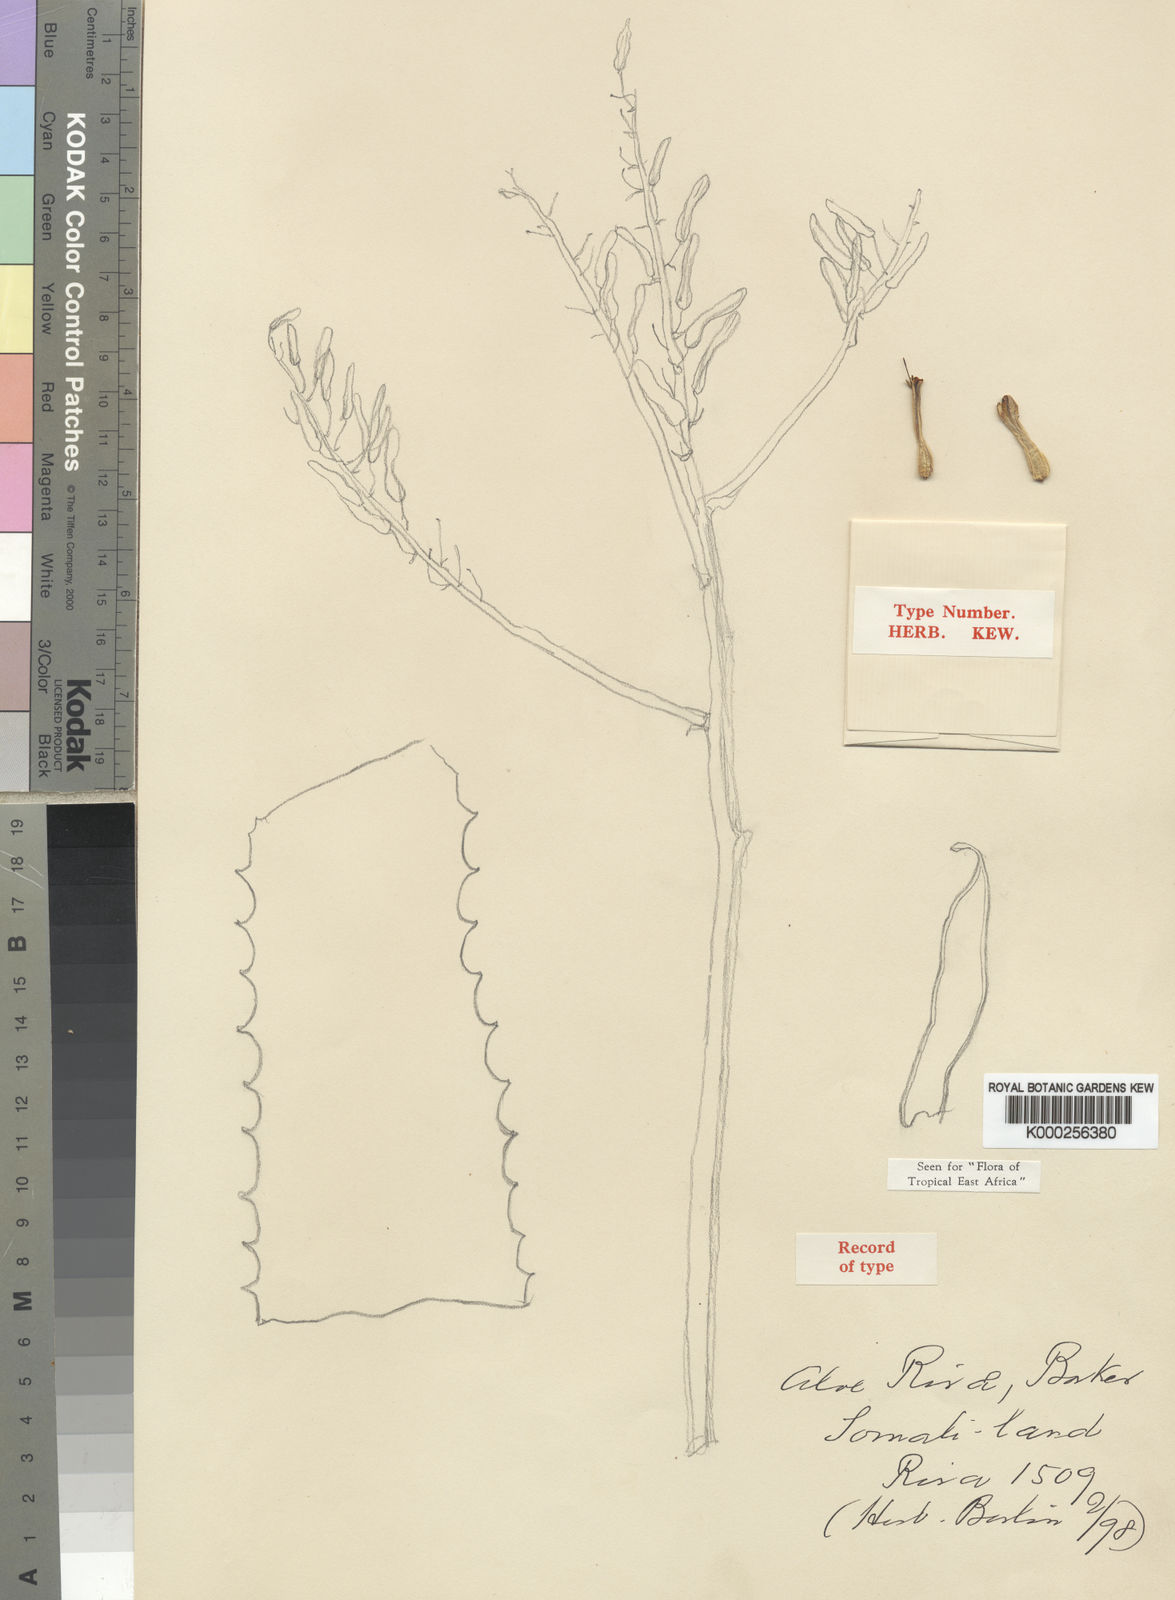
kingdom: Plantae
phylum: Tracheophyta
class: Liliopsida
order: Asparagales
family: Asphodelaceae
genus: Aloe
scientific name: Aloe rivae
